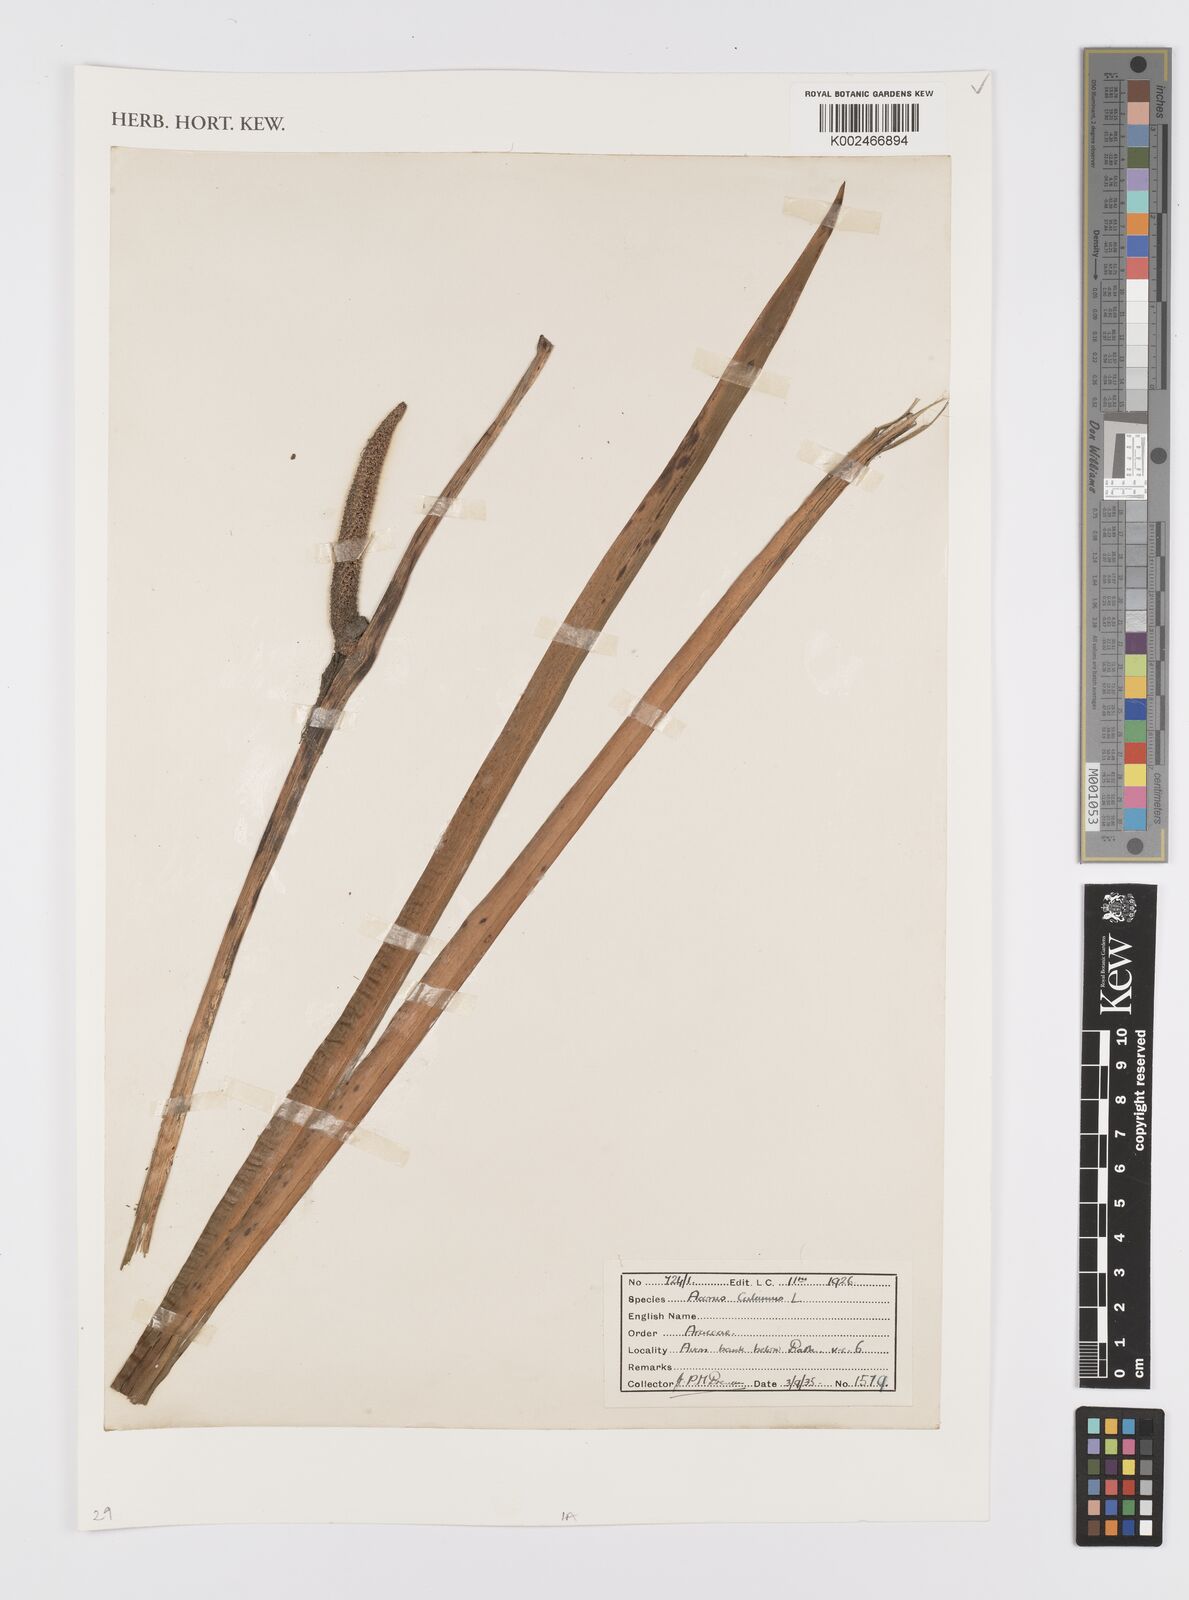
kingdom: Plantae
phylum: Tracheophyta
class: Liliopsida
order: Acorales
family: Acoraceae
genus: Acorus
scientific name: Acorus calamus
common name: Sweet-flag
